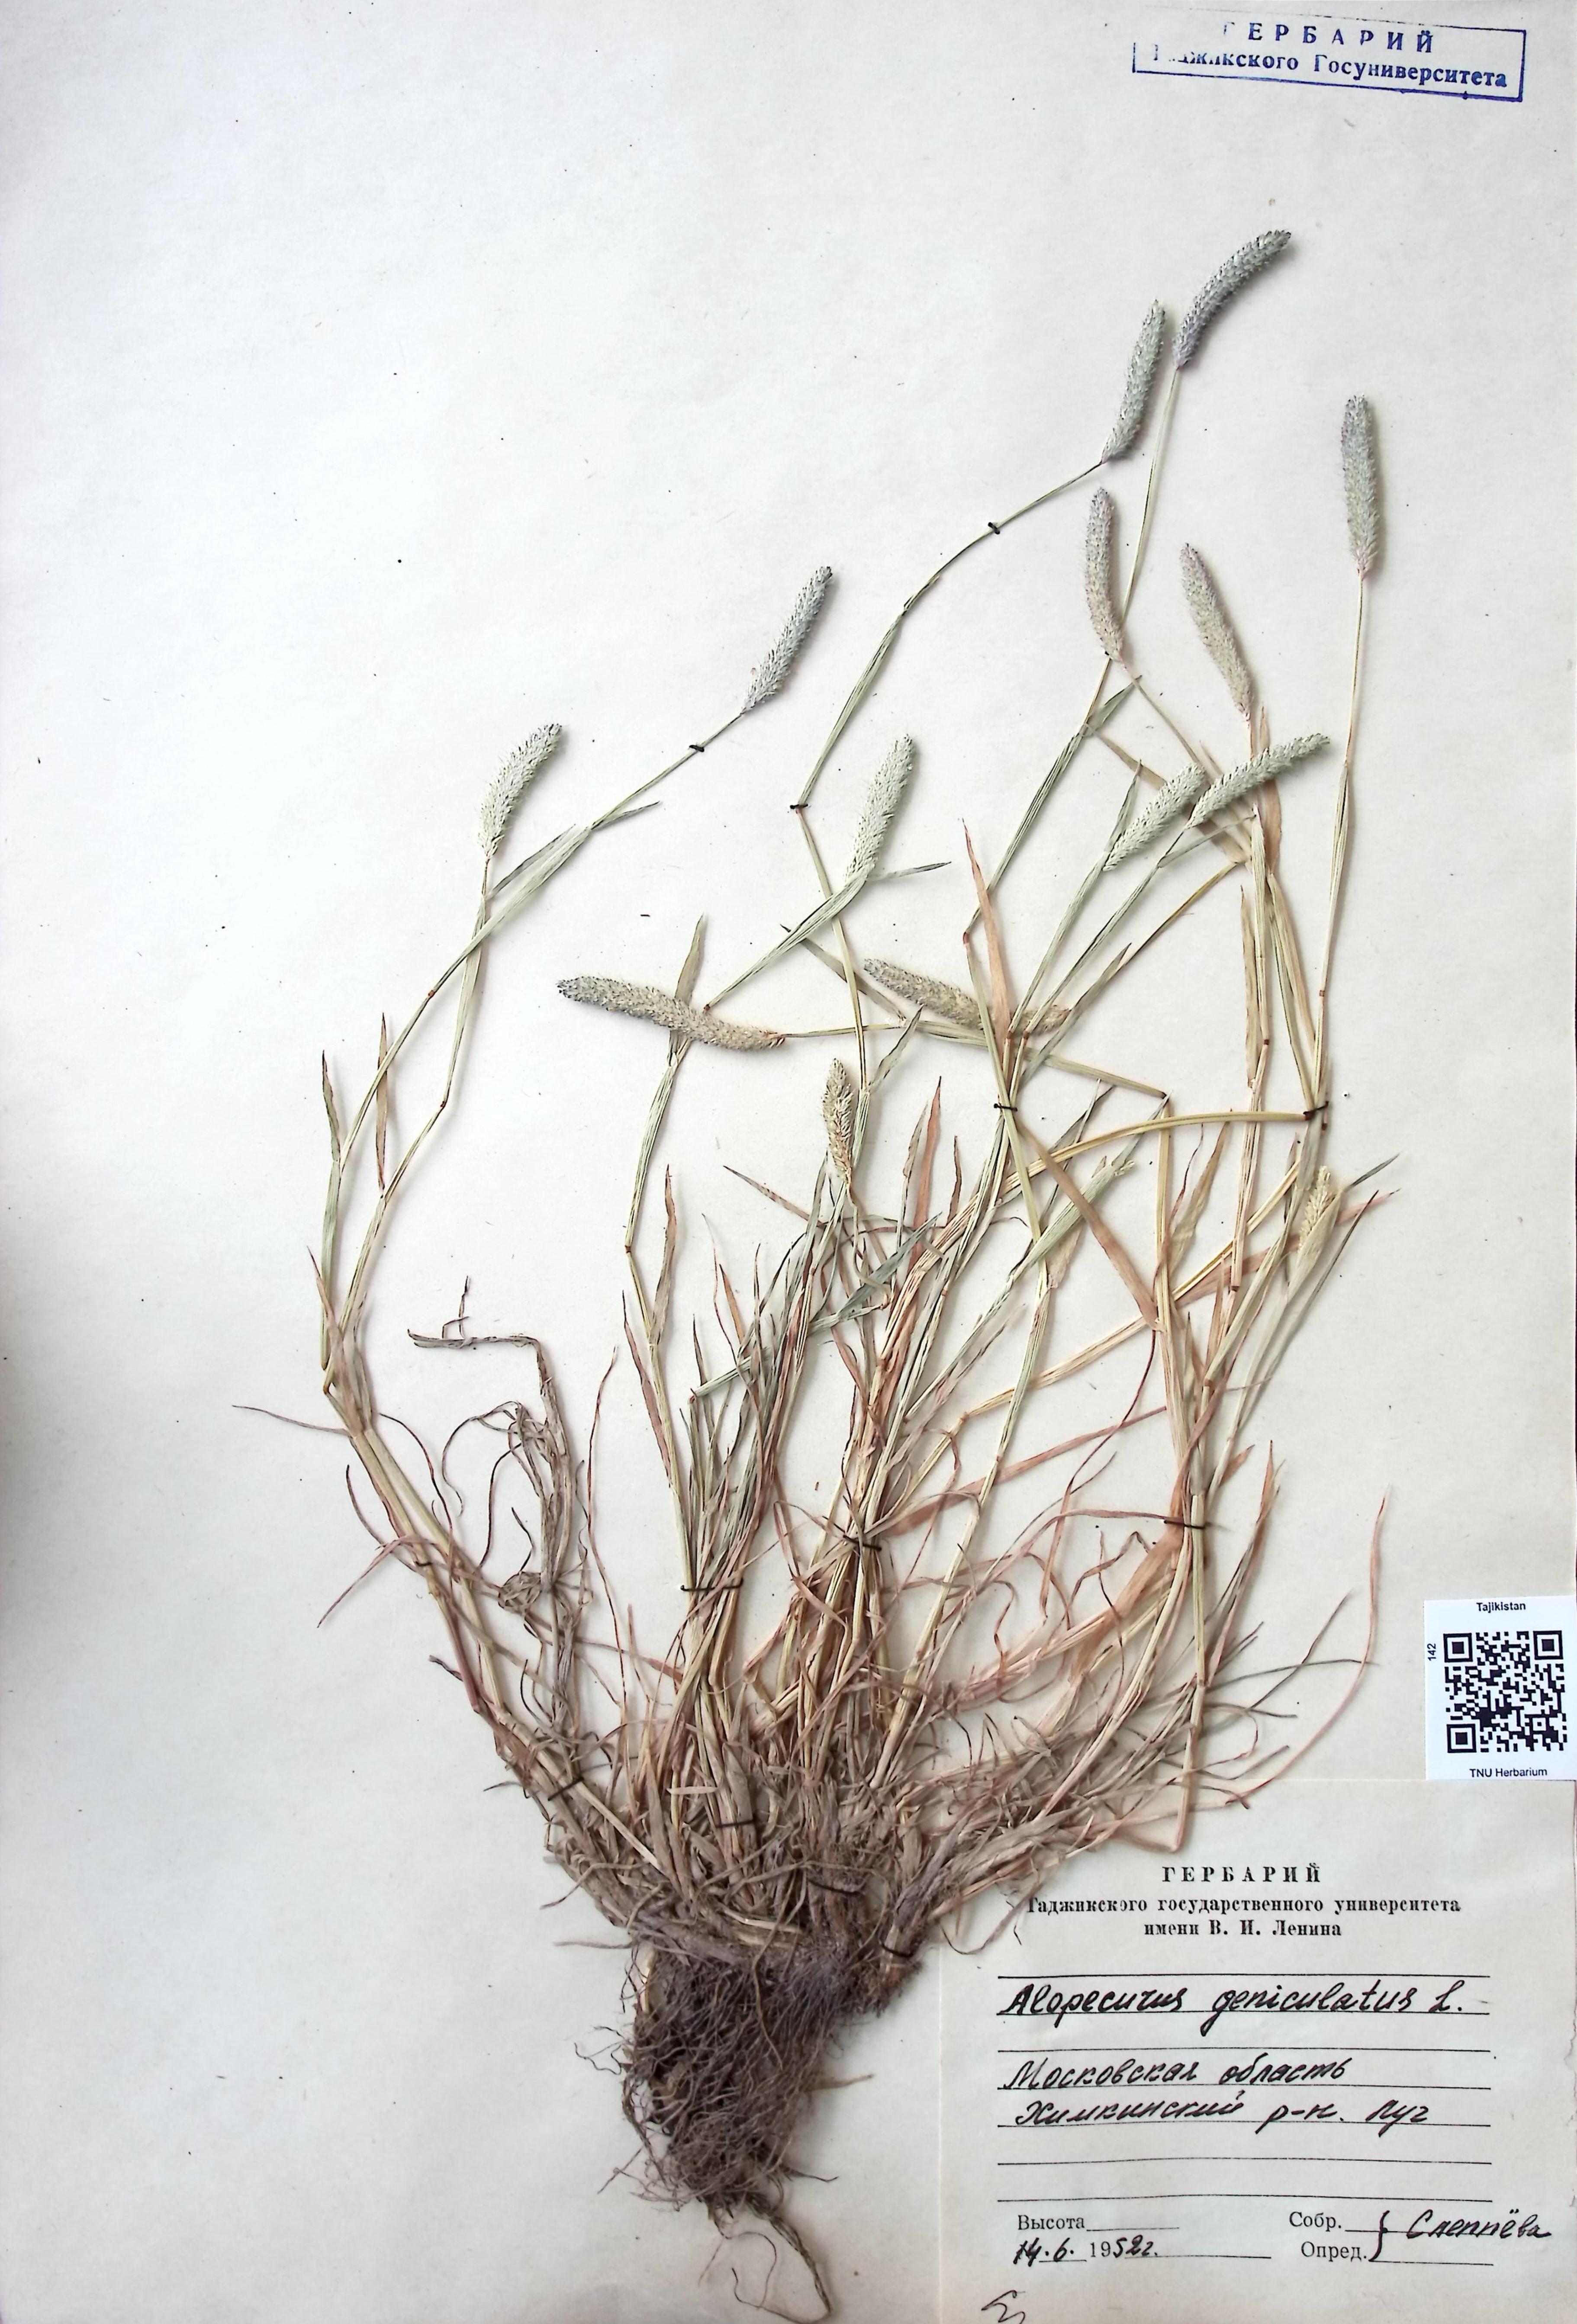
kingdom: Plantae
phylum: Tracheophyta
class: Liliopsida
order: Poales
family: Poaceae
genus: Alopecurus
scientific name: Alopecurus geniculatus
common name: Water foxtail
